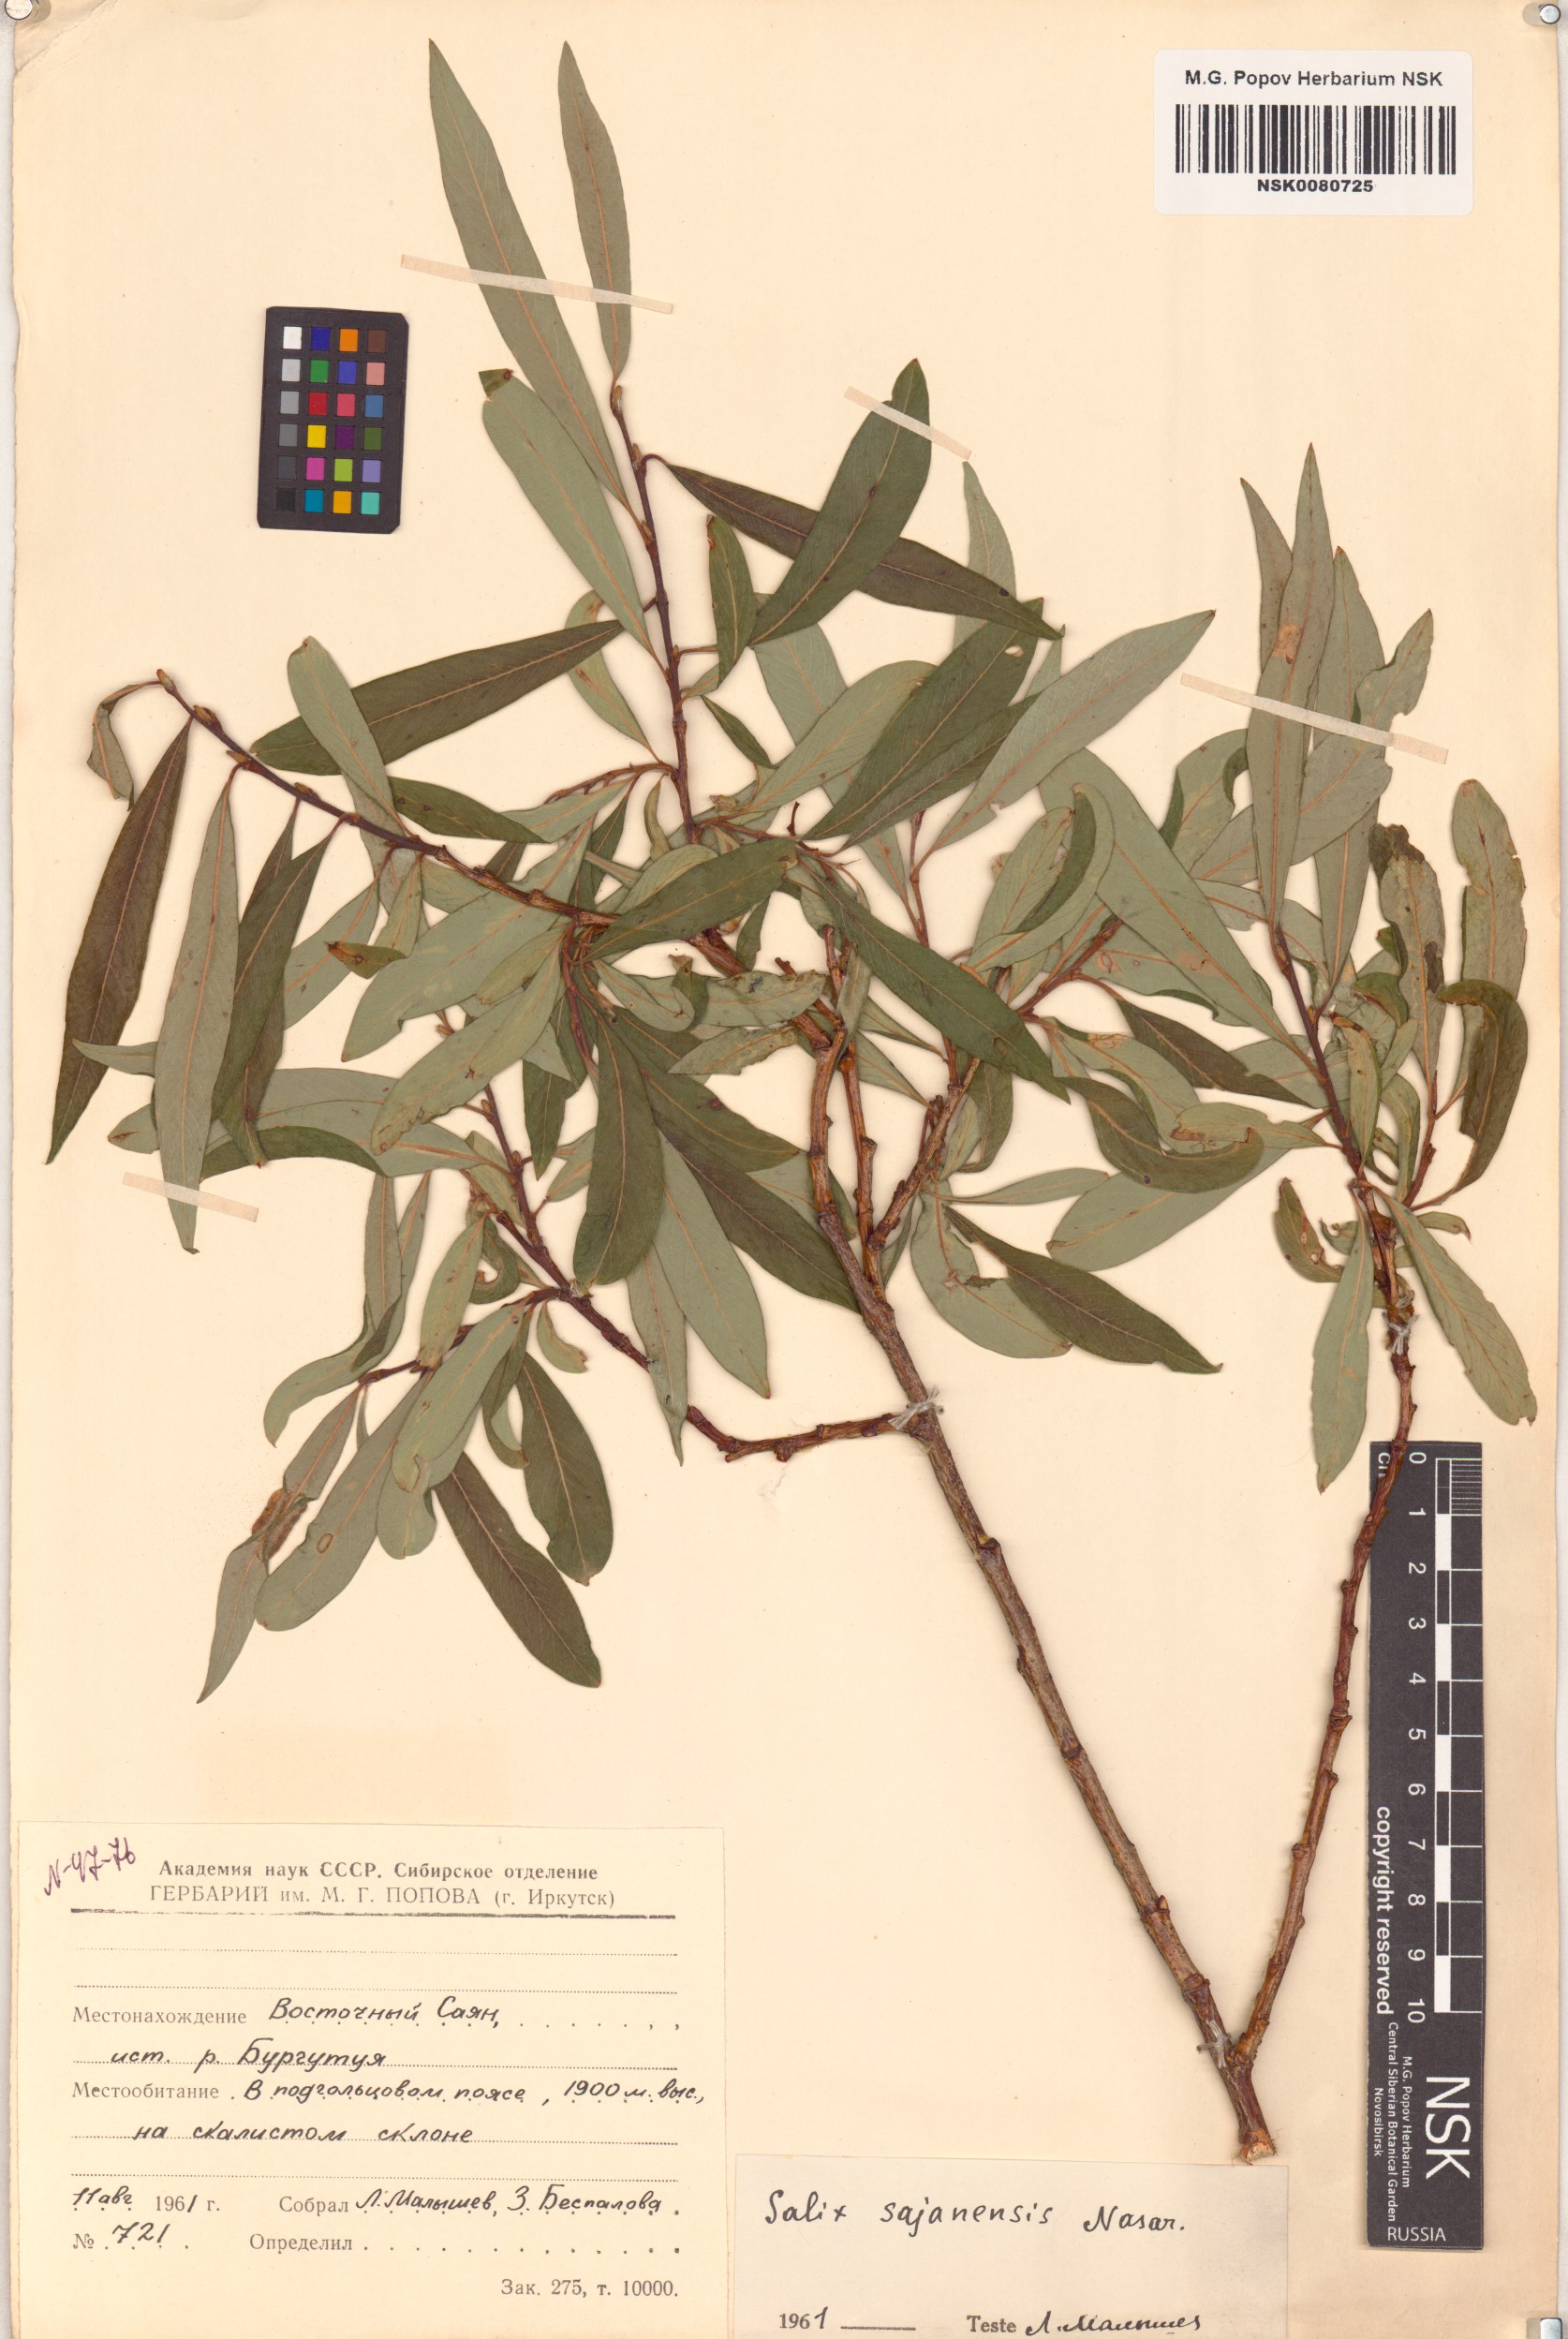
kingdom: Plantae
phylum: Tracheophyta
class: Magnoliopsida
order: Malpighiales
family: Salicaceae
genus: Salix
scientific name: Salix sajanensis
